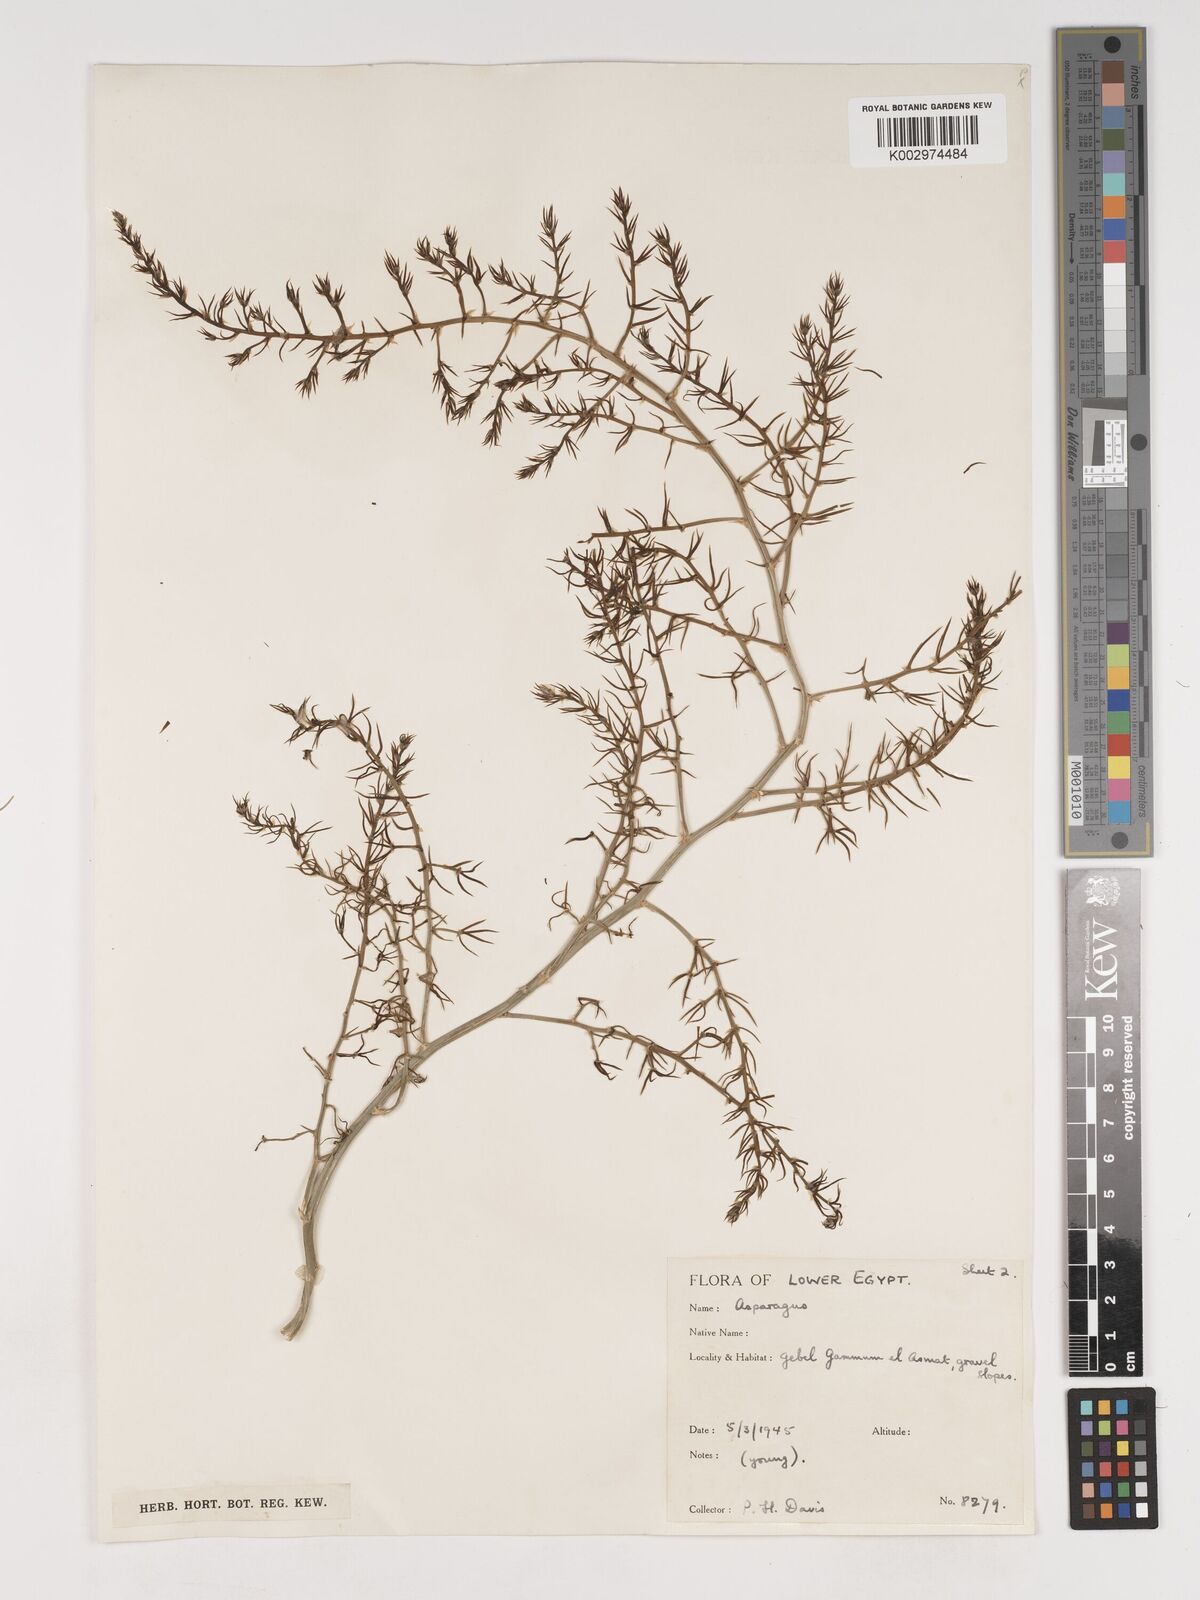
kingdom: Plantae
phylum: Tracheophyta
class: Liliopsida
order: Asparagales
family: Asparagaceae
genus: Asparagus
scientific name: Asparagus
